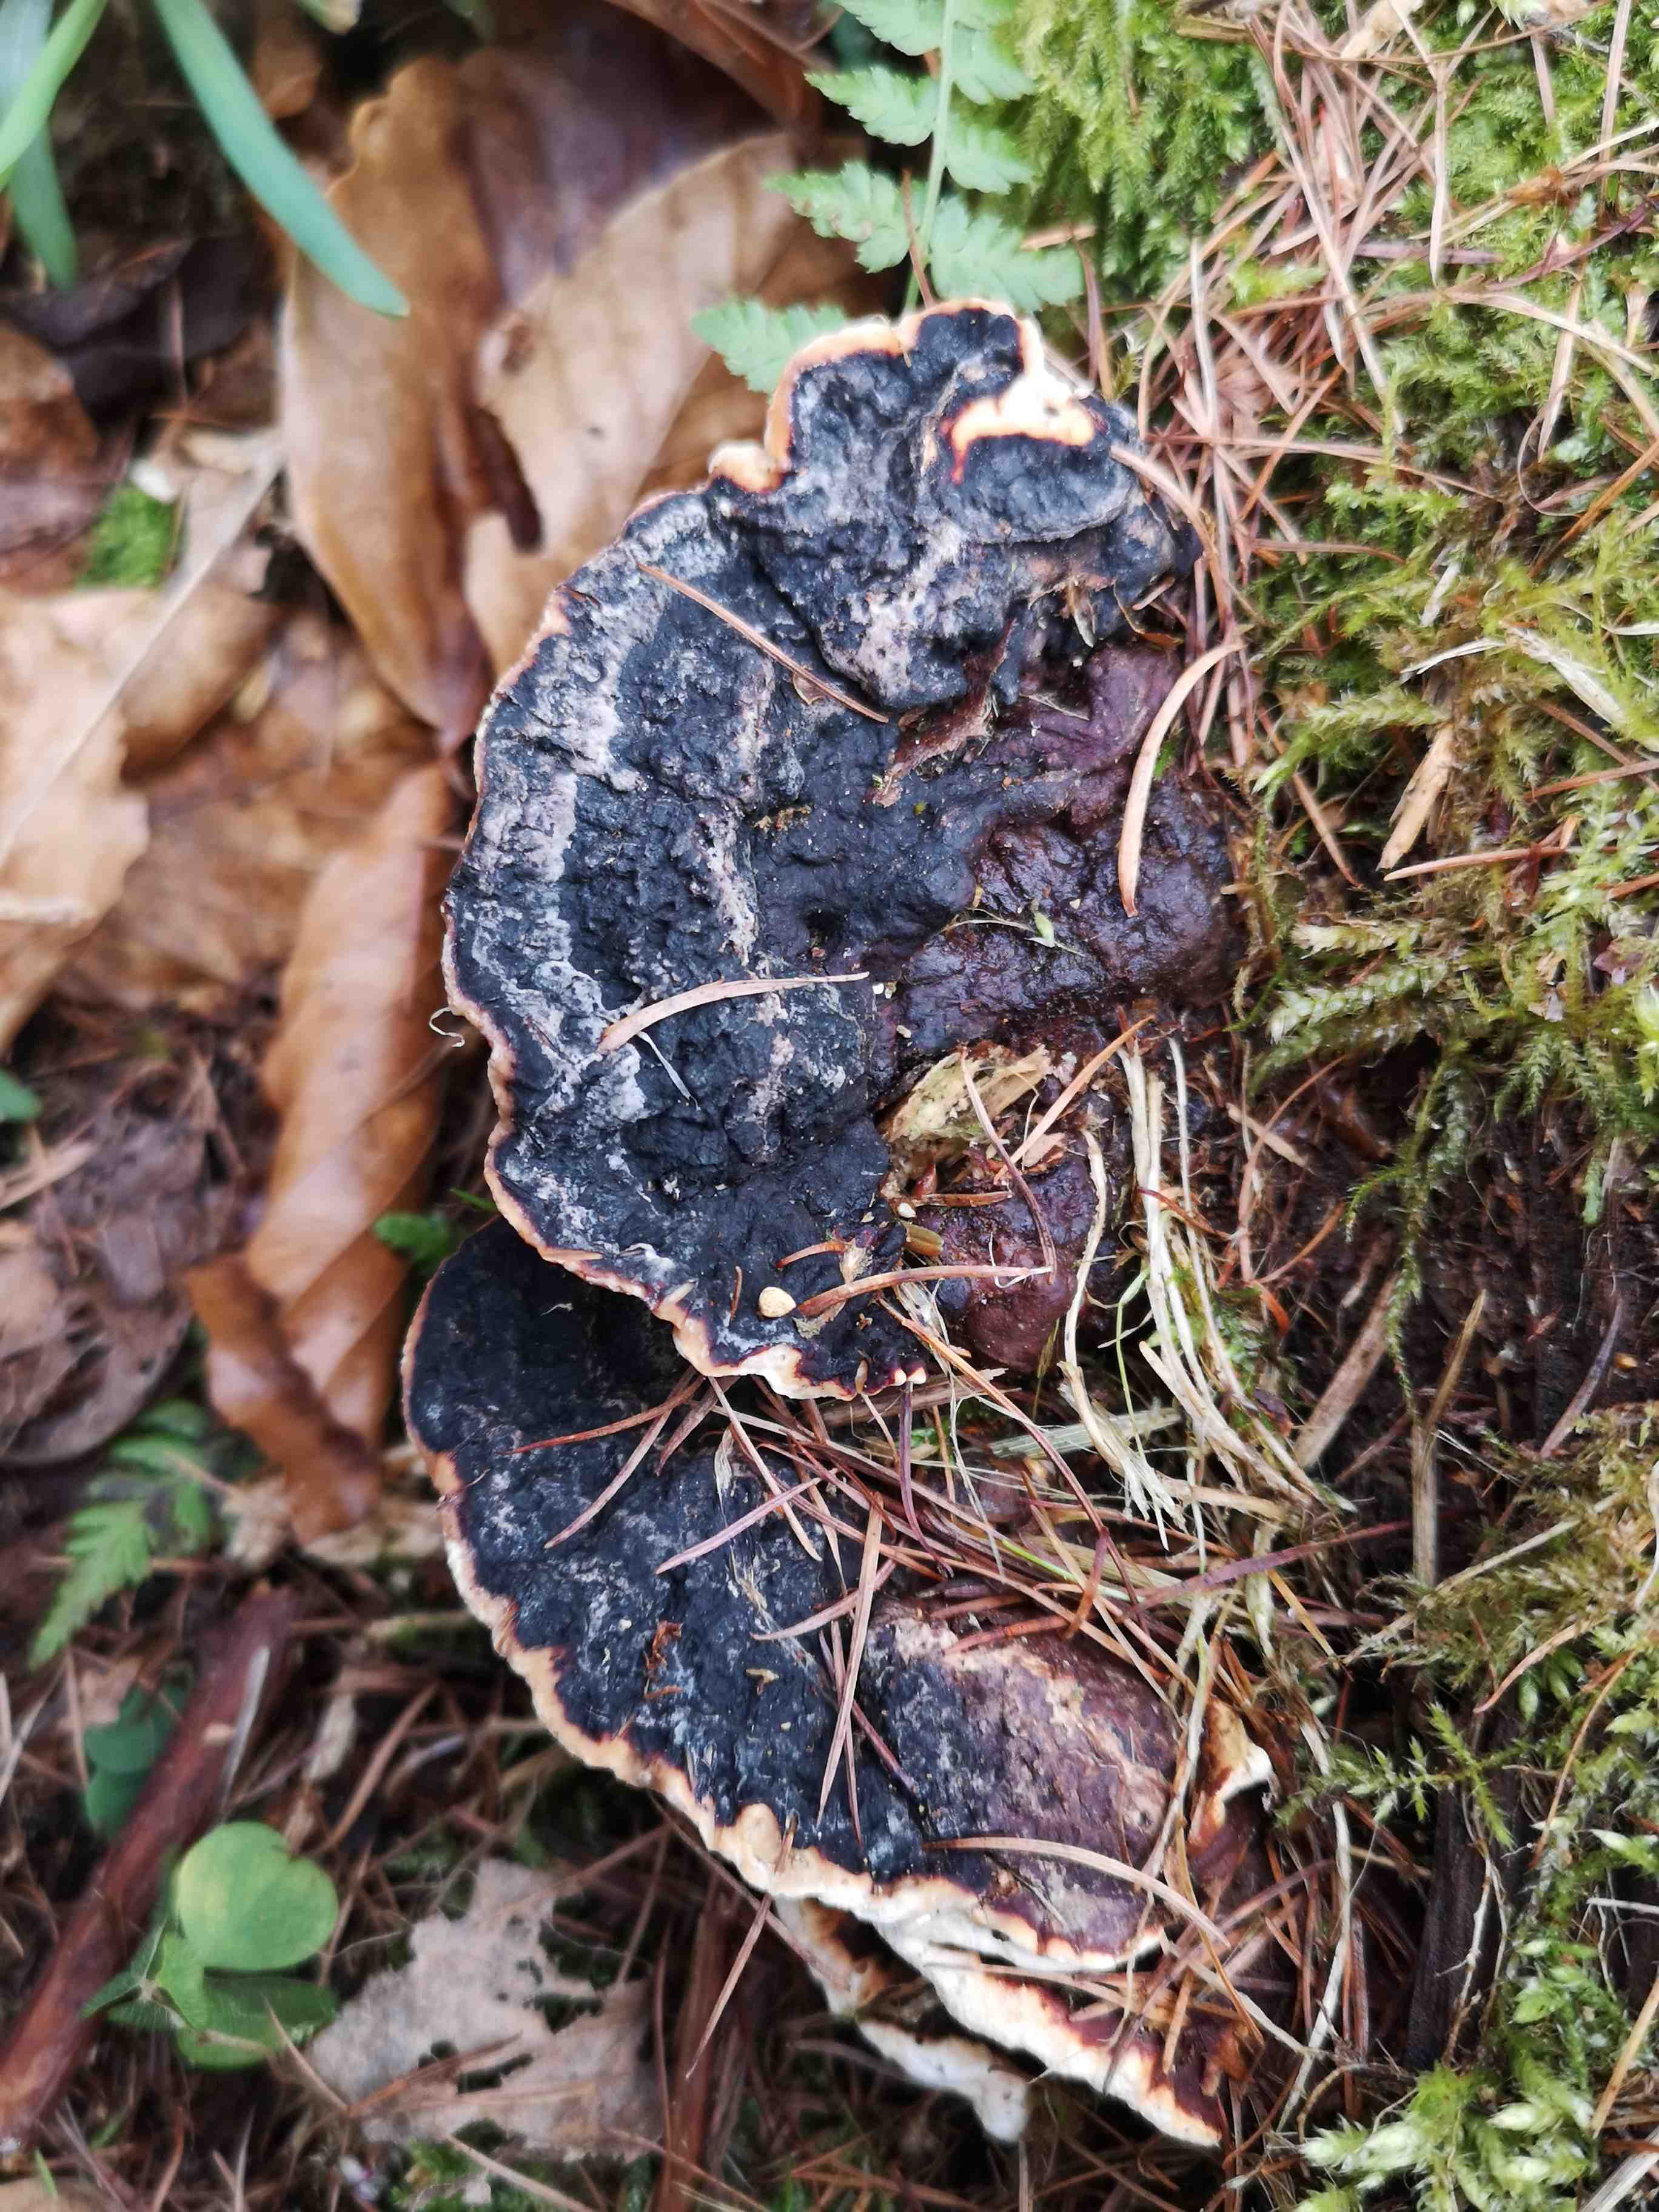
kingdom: Fungi
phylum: Basidiomycota
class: Agaricomycetes
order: Russulales
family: Bondarzewiaceae
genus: Heterobasidion
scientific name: Heterobasidion annosum
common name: almindelig rodfordærver
